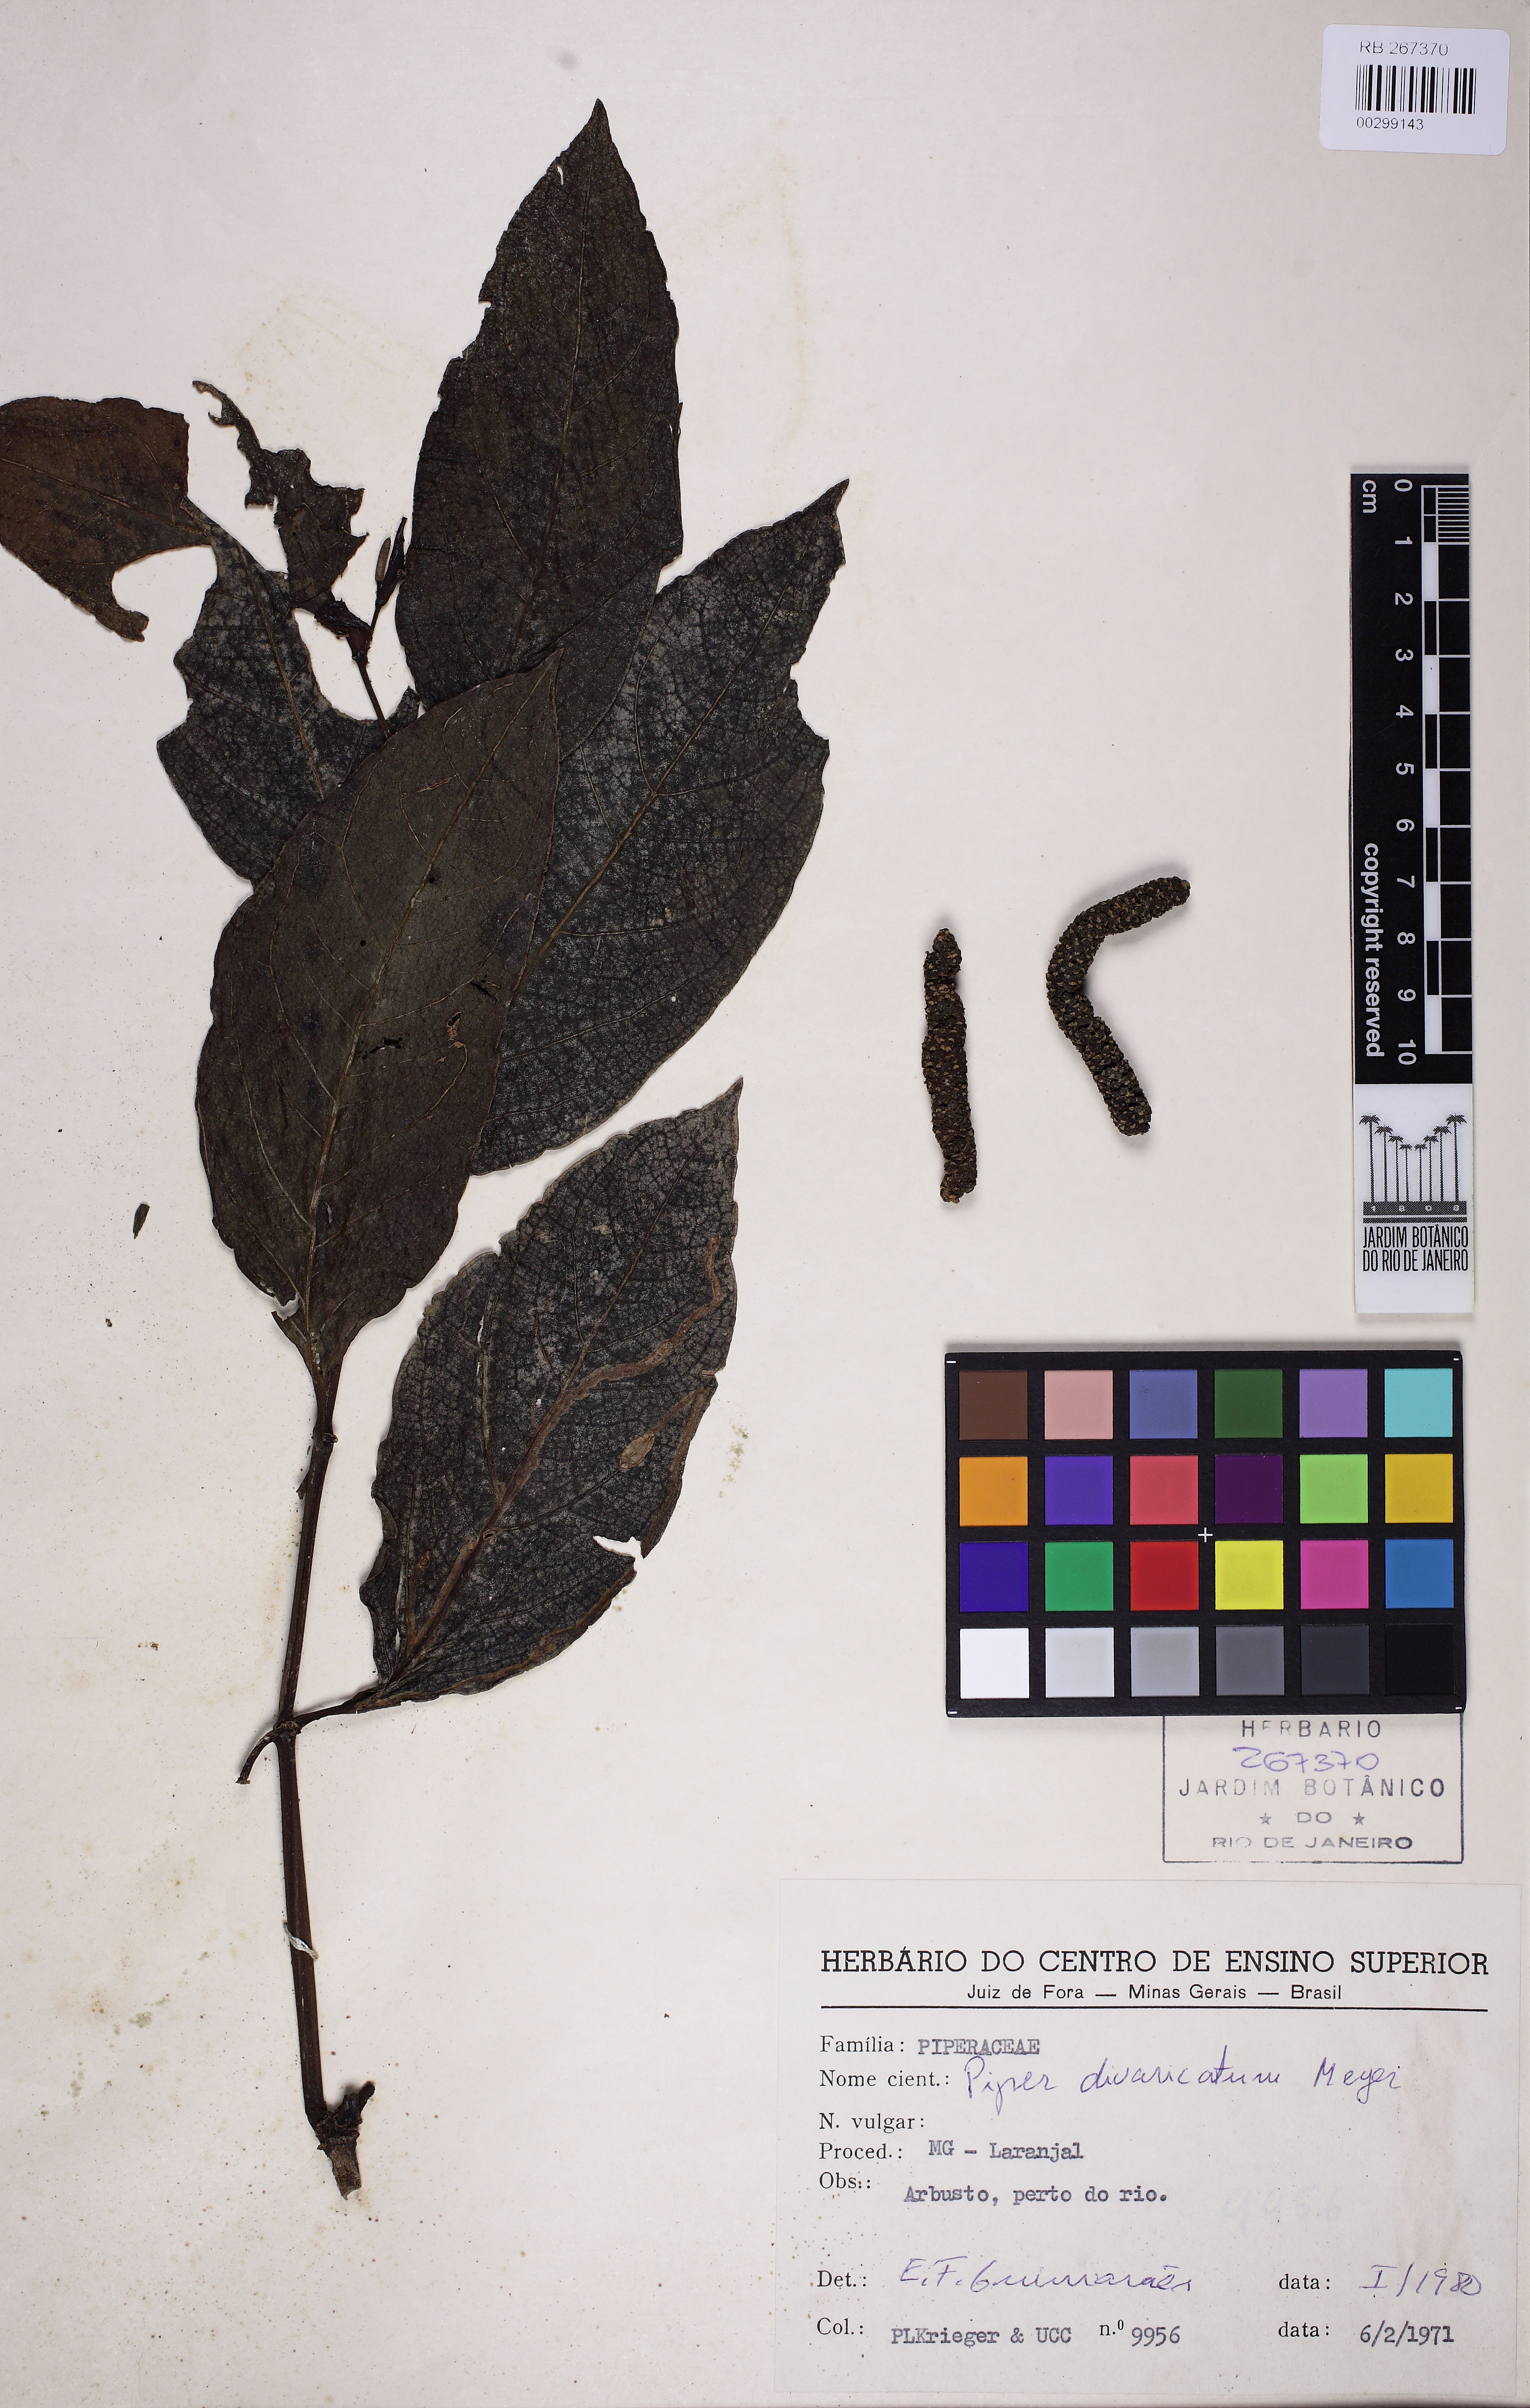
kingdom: Plantae
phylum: Tracheophyta
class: Magnoliopsida
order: Piperales
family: Piperaceae
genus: Piper
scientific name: Piper divaricatum
